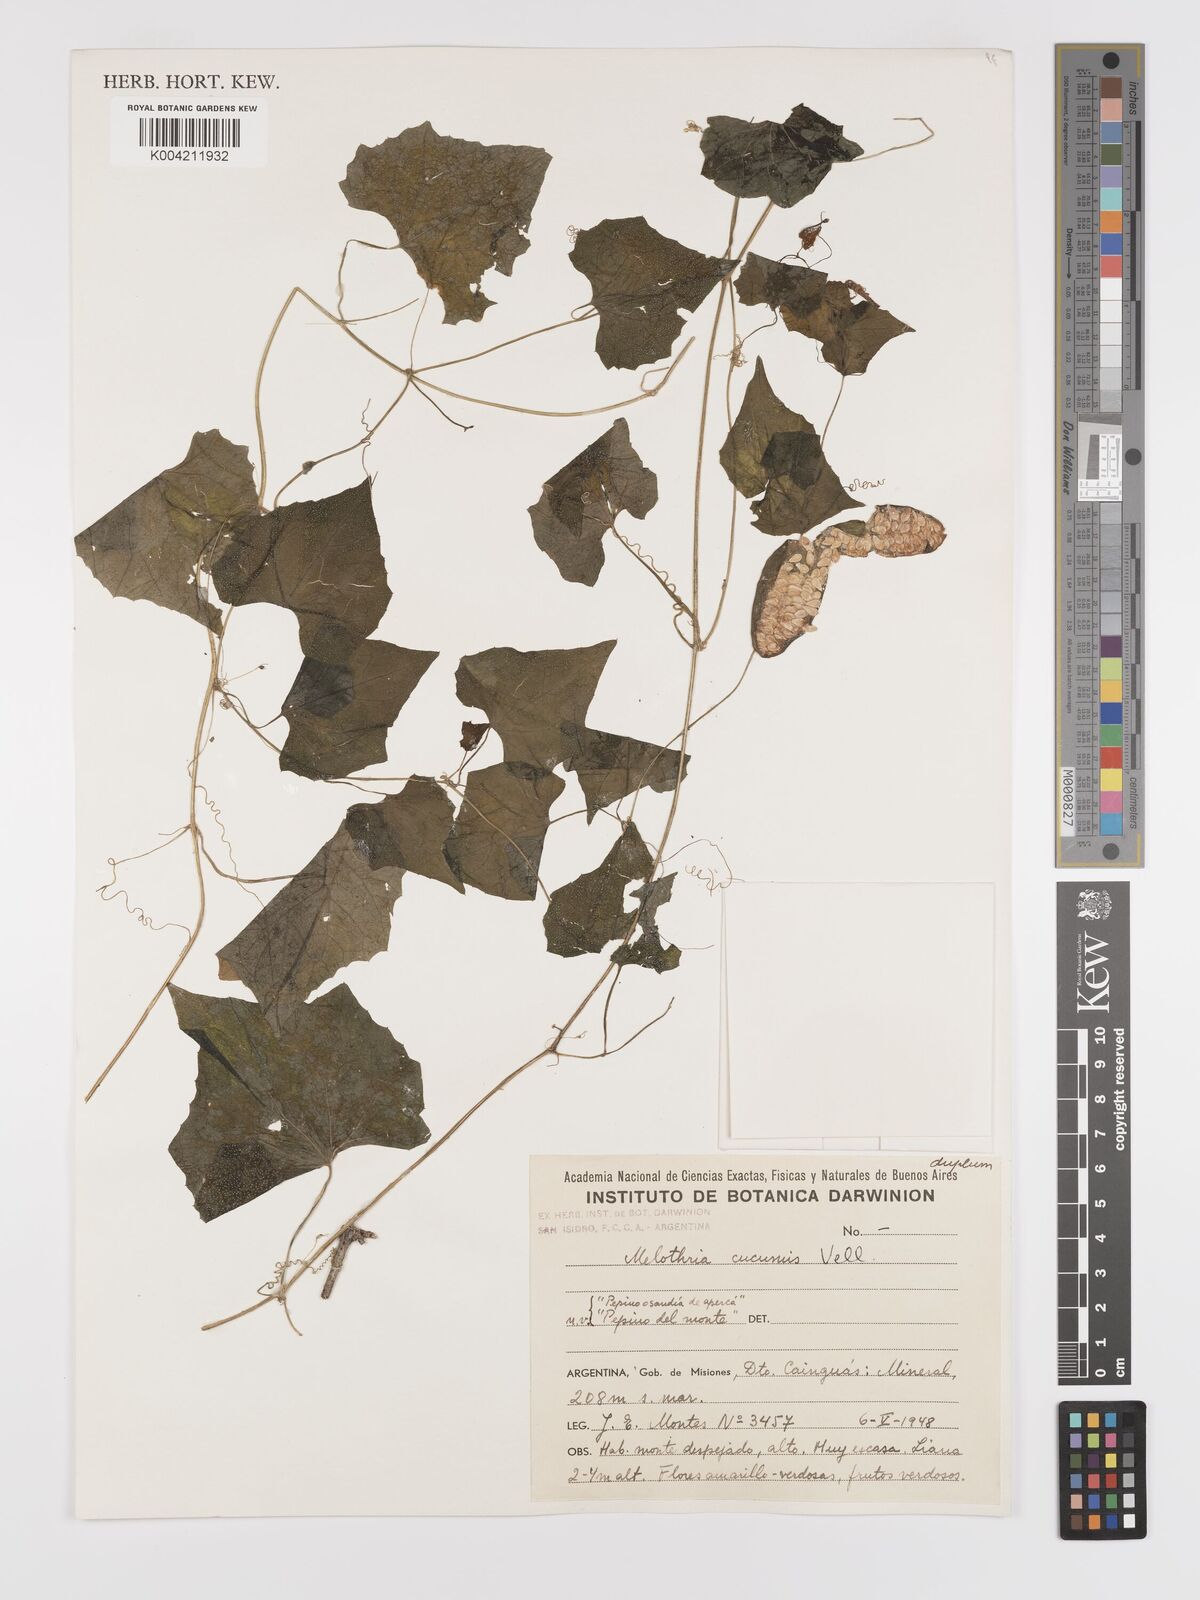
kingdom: Plantae
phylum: Tracheophyta
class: Magnoliopsida
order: Cucurbitales
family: Cucurbitaceae
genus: Melothria
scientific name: Melothria cucumis
